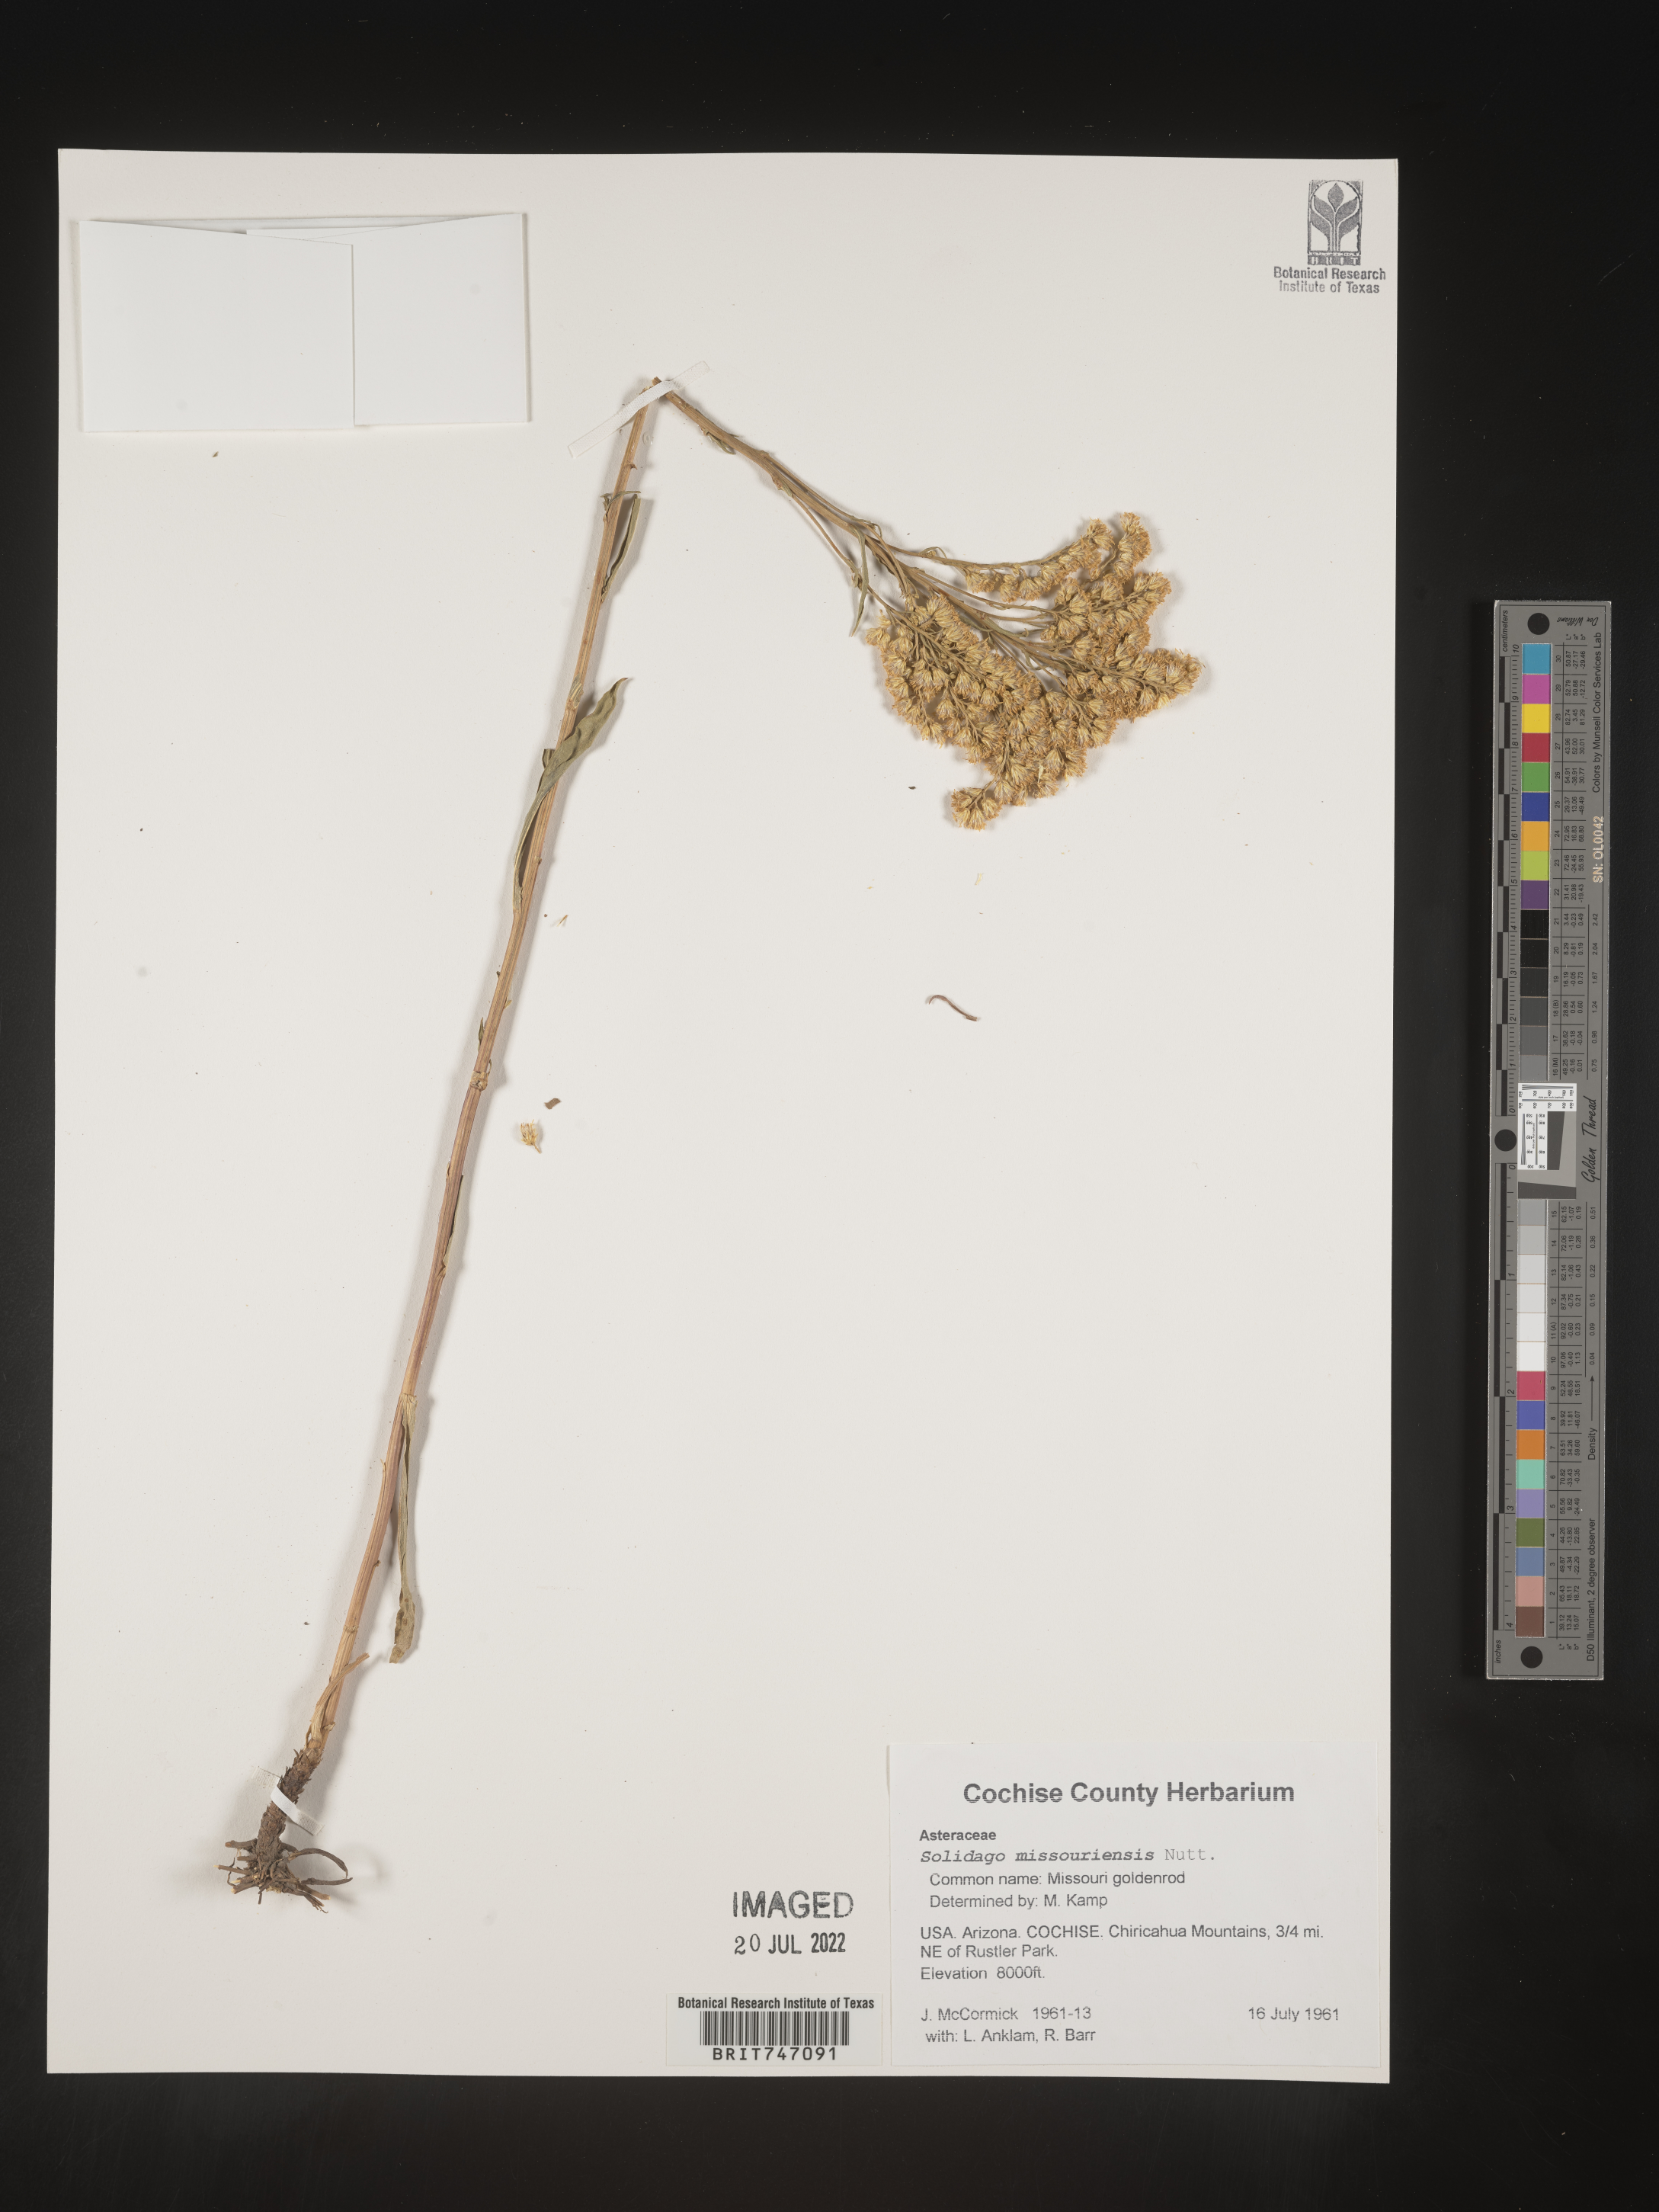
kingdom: Plantae
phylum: Tracheophyta
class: Magnoliopsida
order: Asterales
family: Asteraceae
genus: Solidago
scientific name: Solidago missouriensis
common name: Prairie goldenrod
